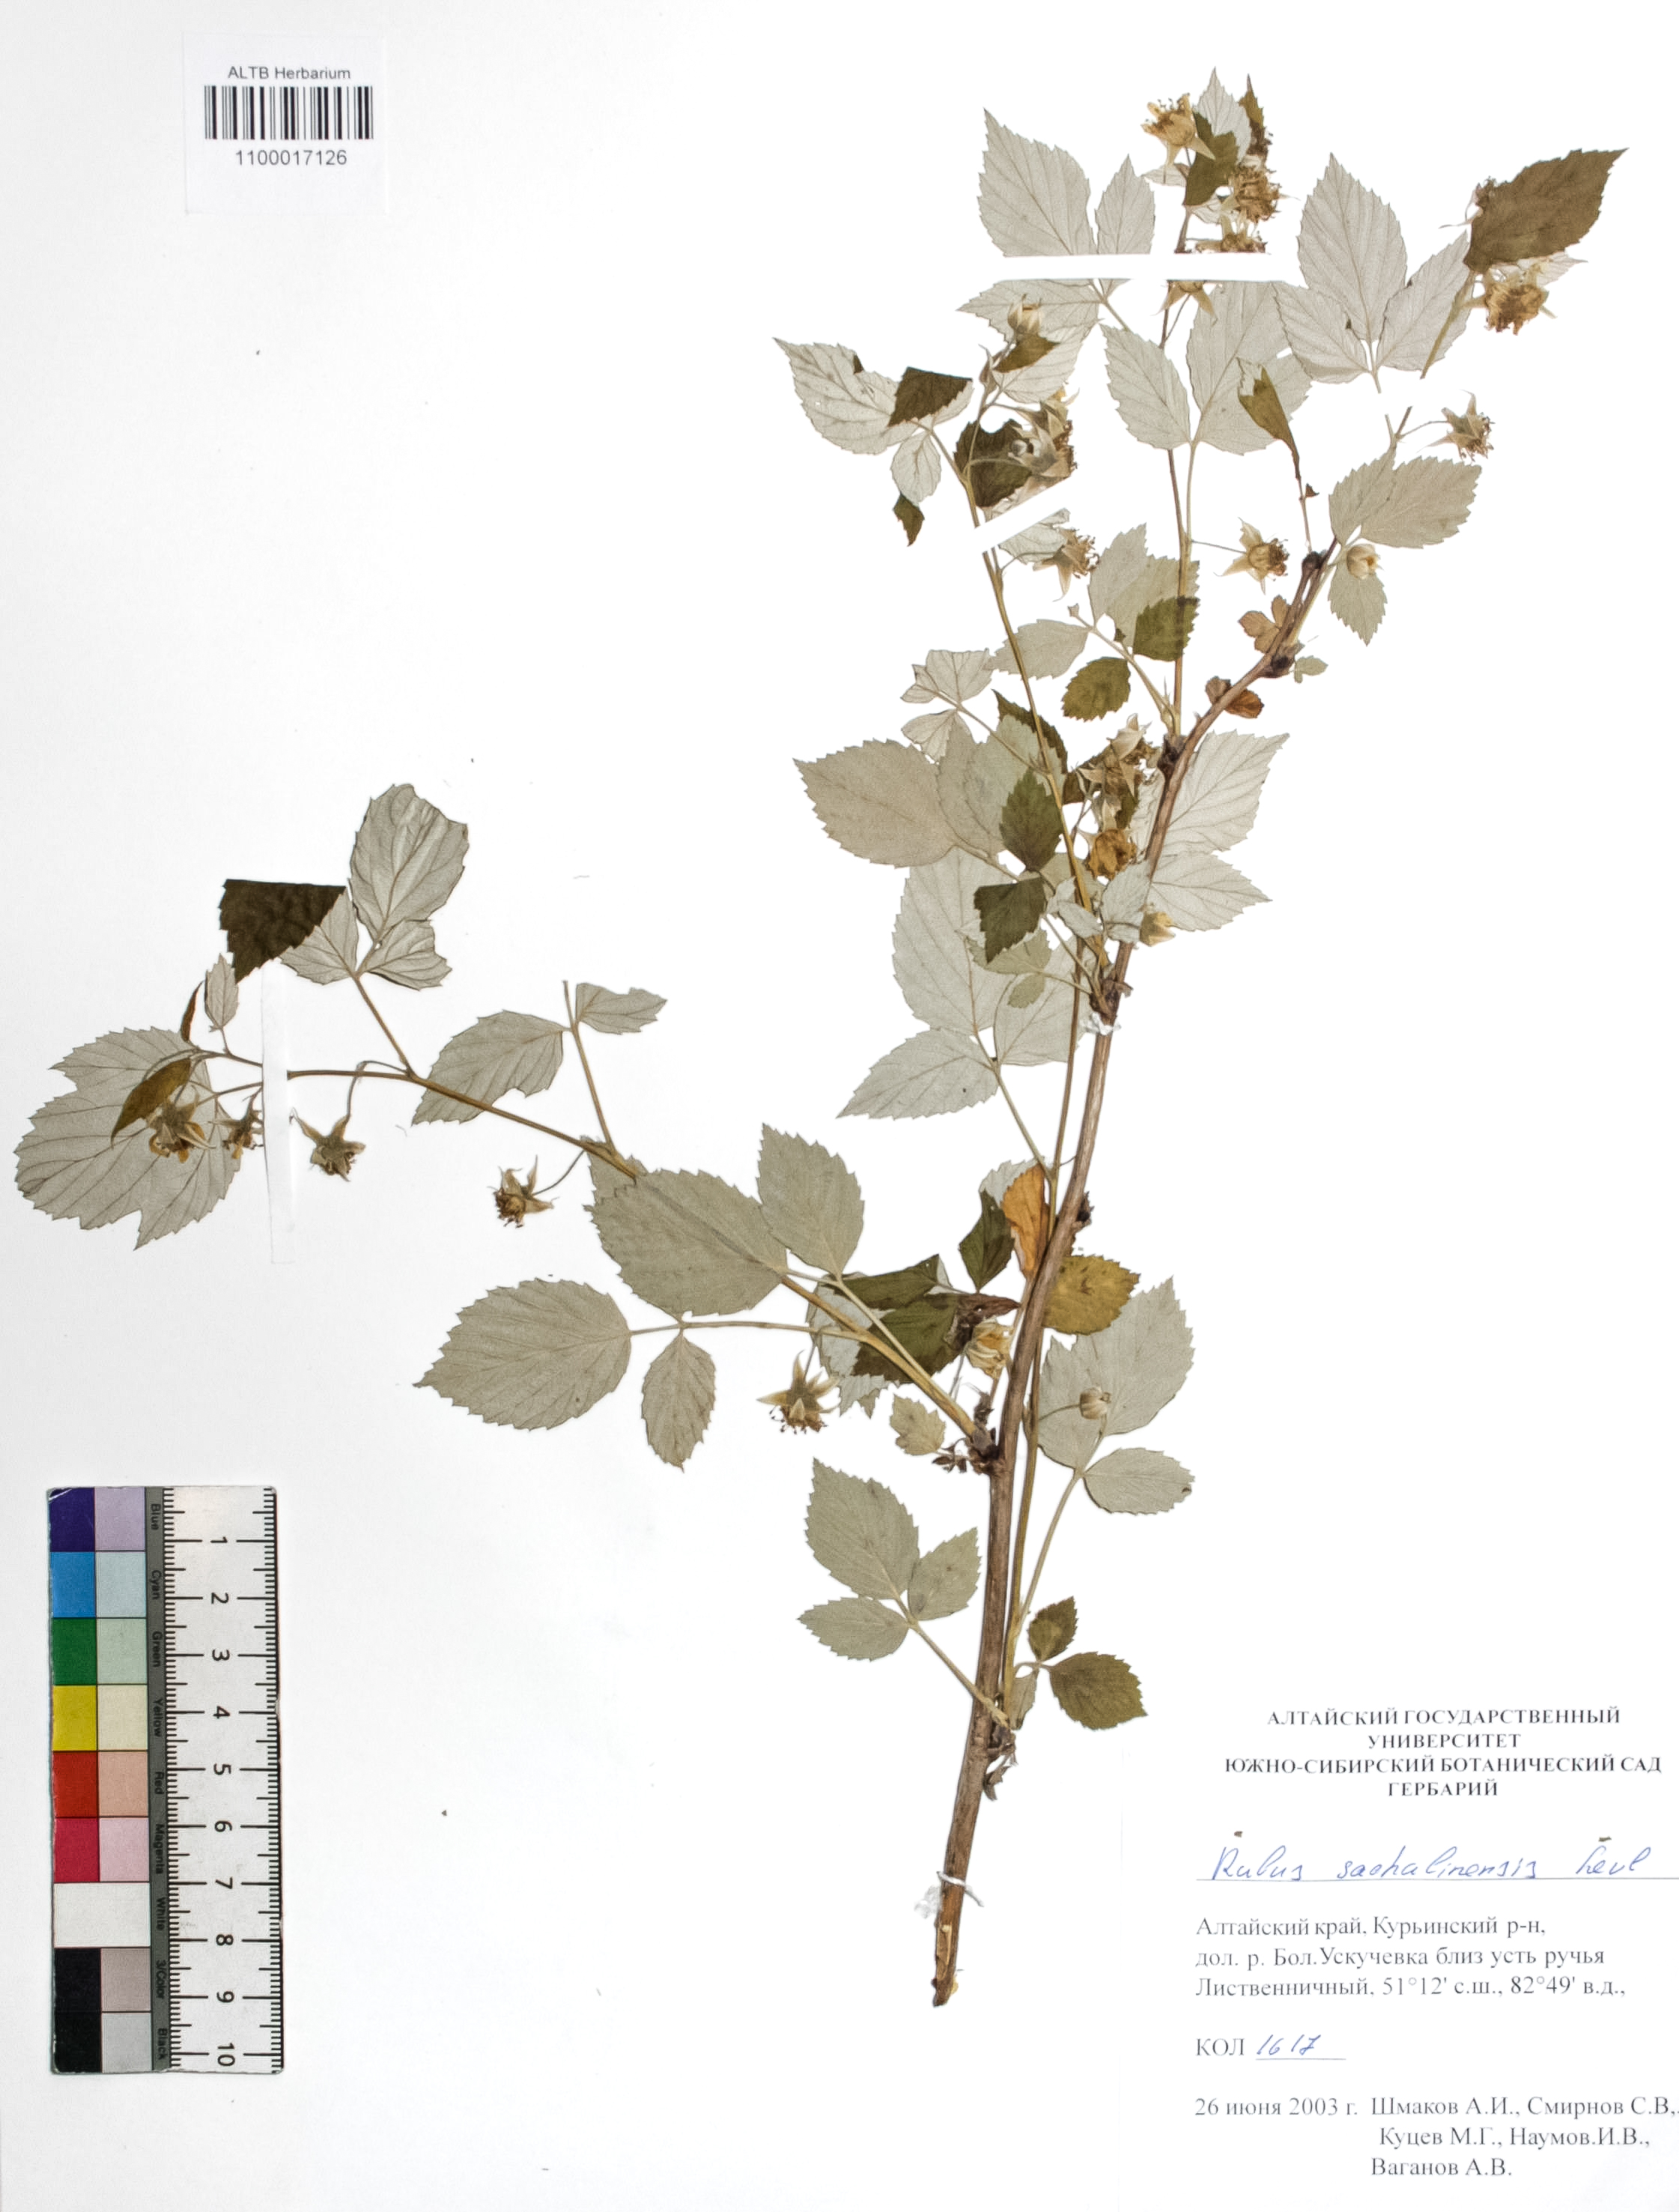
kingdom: Plantae
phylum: Tracheophyta
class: Magnoliopsida
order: Rosales
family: Rosaceae
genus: Rubus
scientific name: Rubus sachalinensis
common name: Red raspberry
